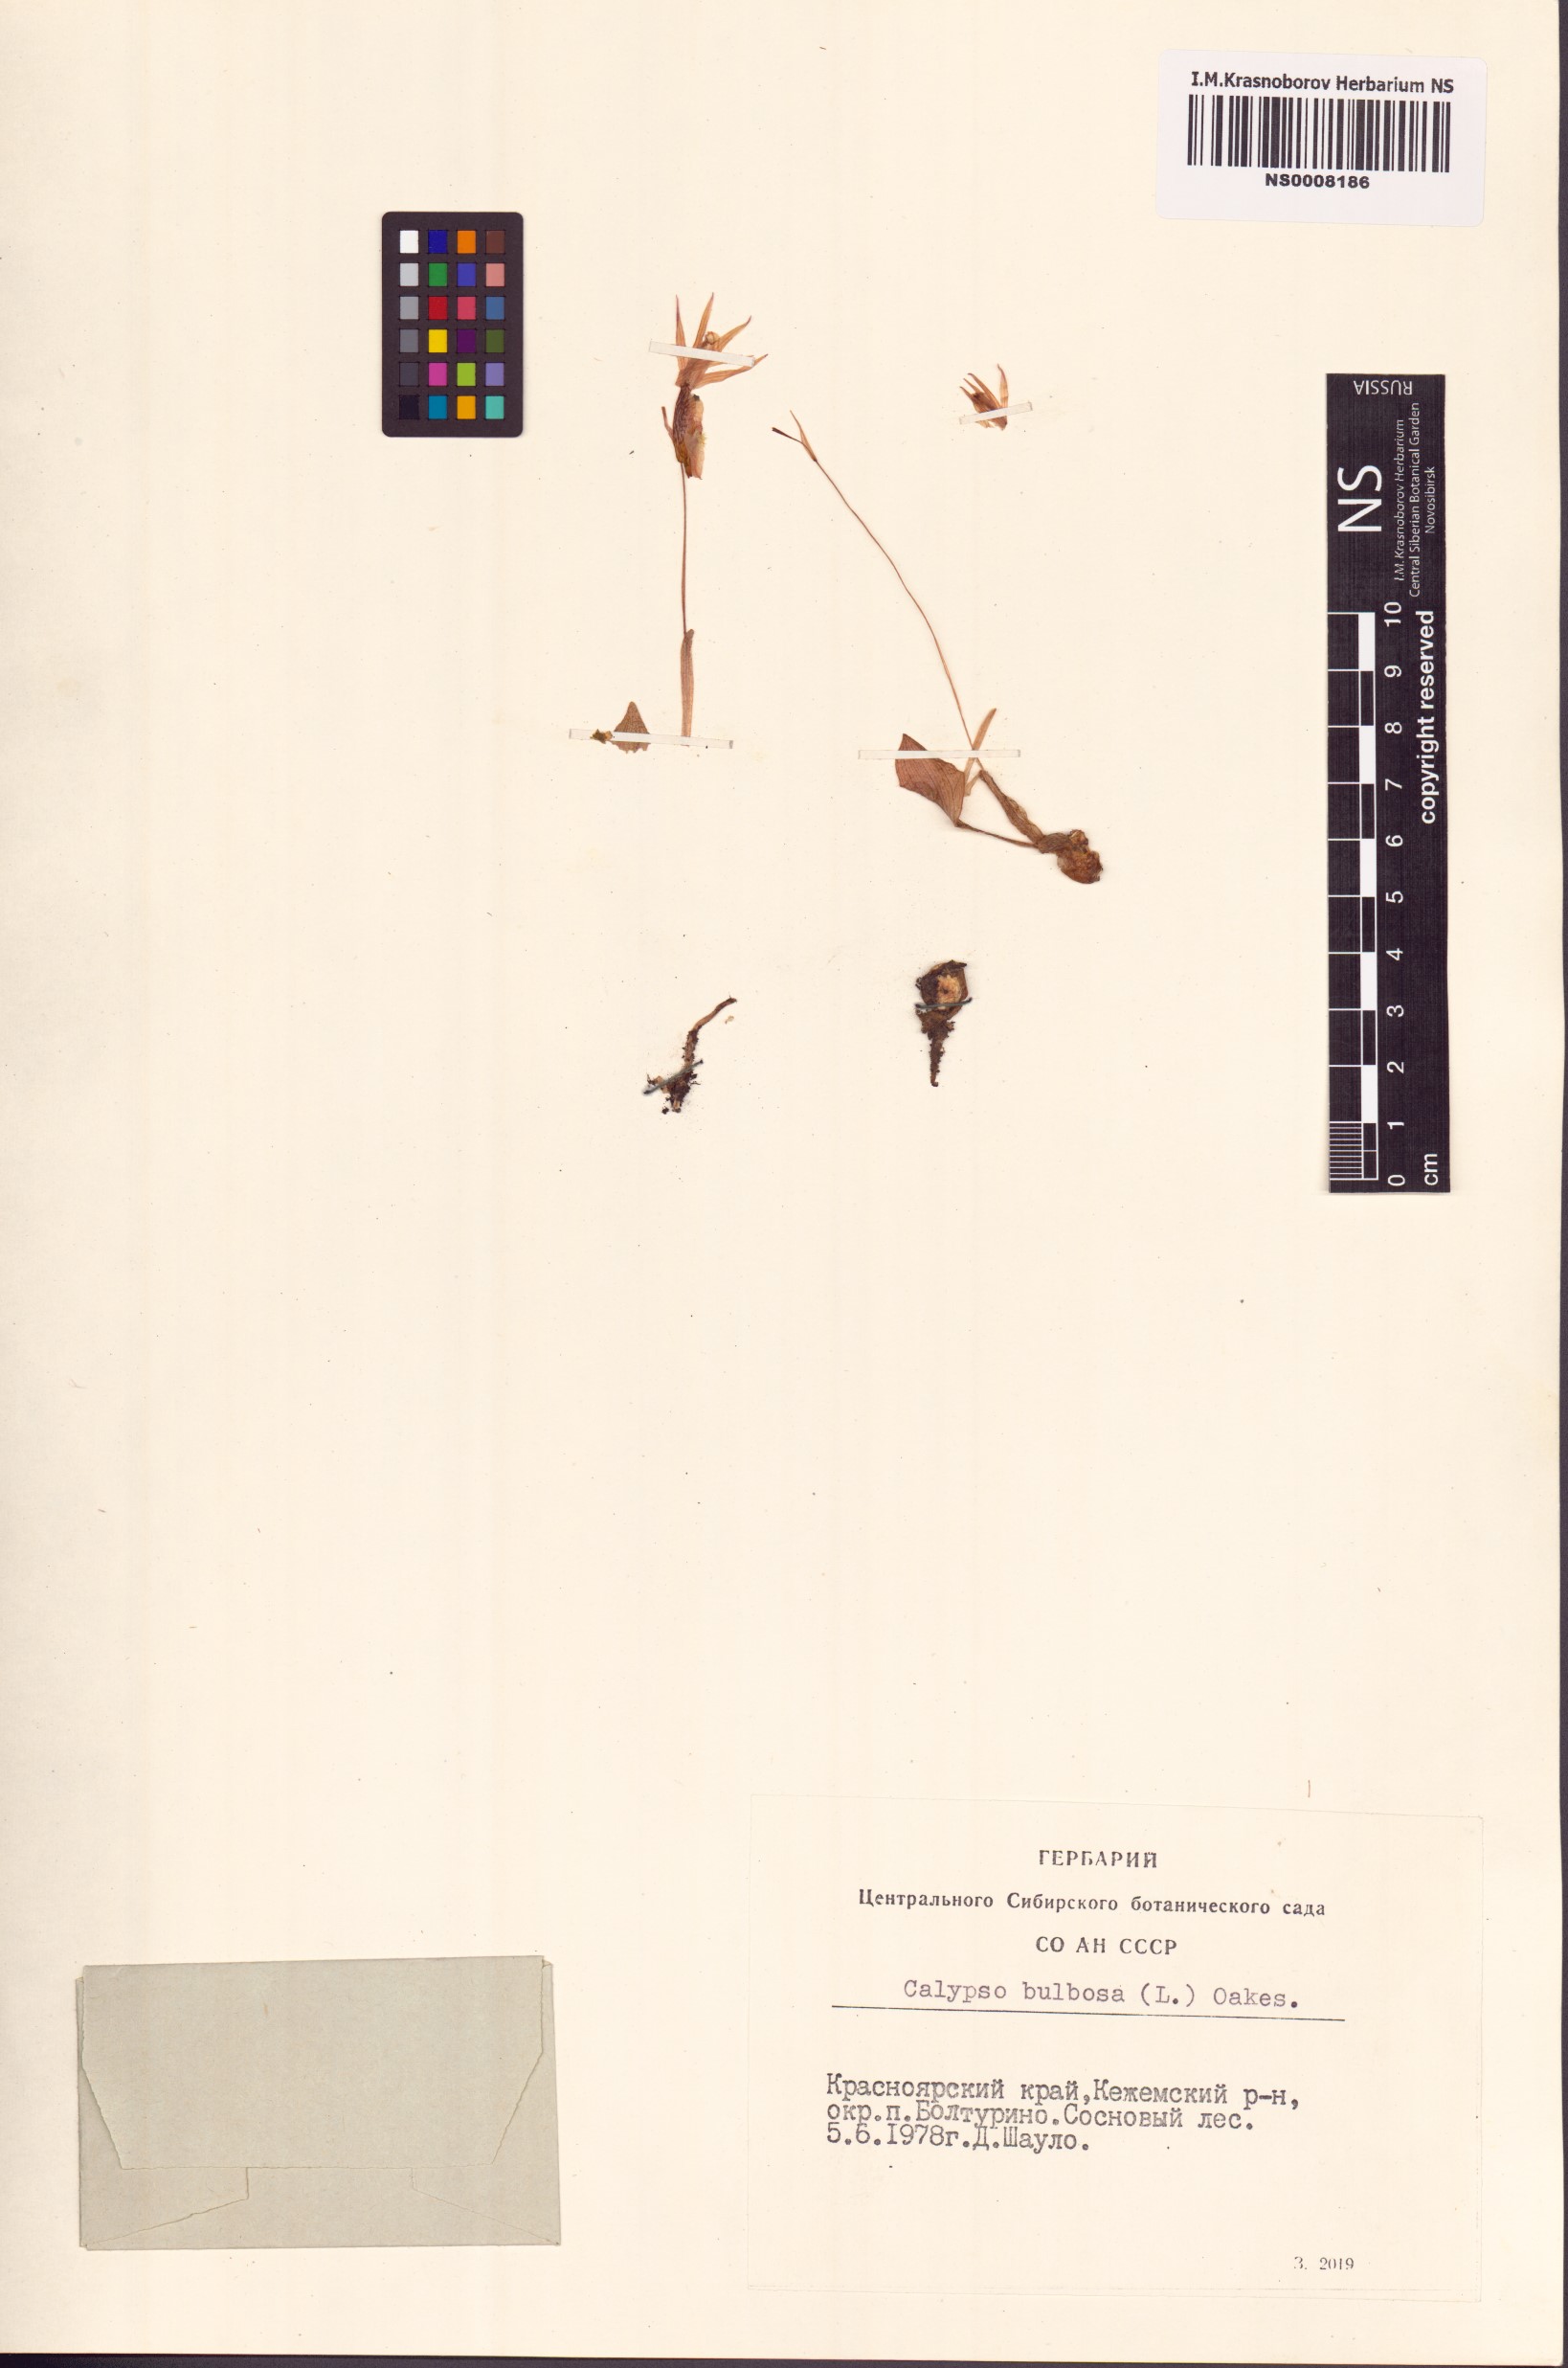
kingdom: Plantae
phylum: Tracheophyta
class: Liliopsida
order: Asparagales
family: Orchidaceae
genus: Calypso
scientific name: Calypso bulbosa
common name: Calypso
